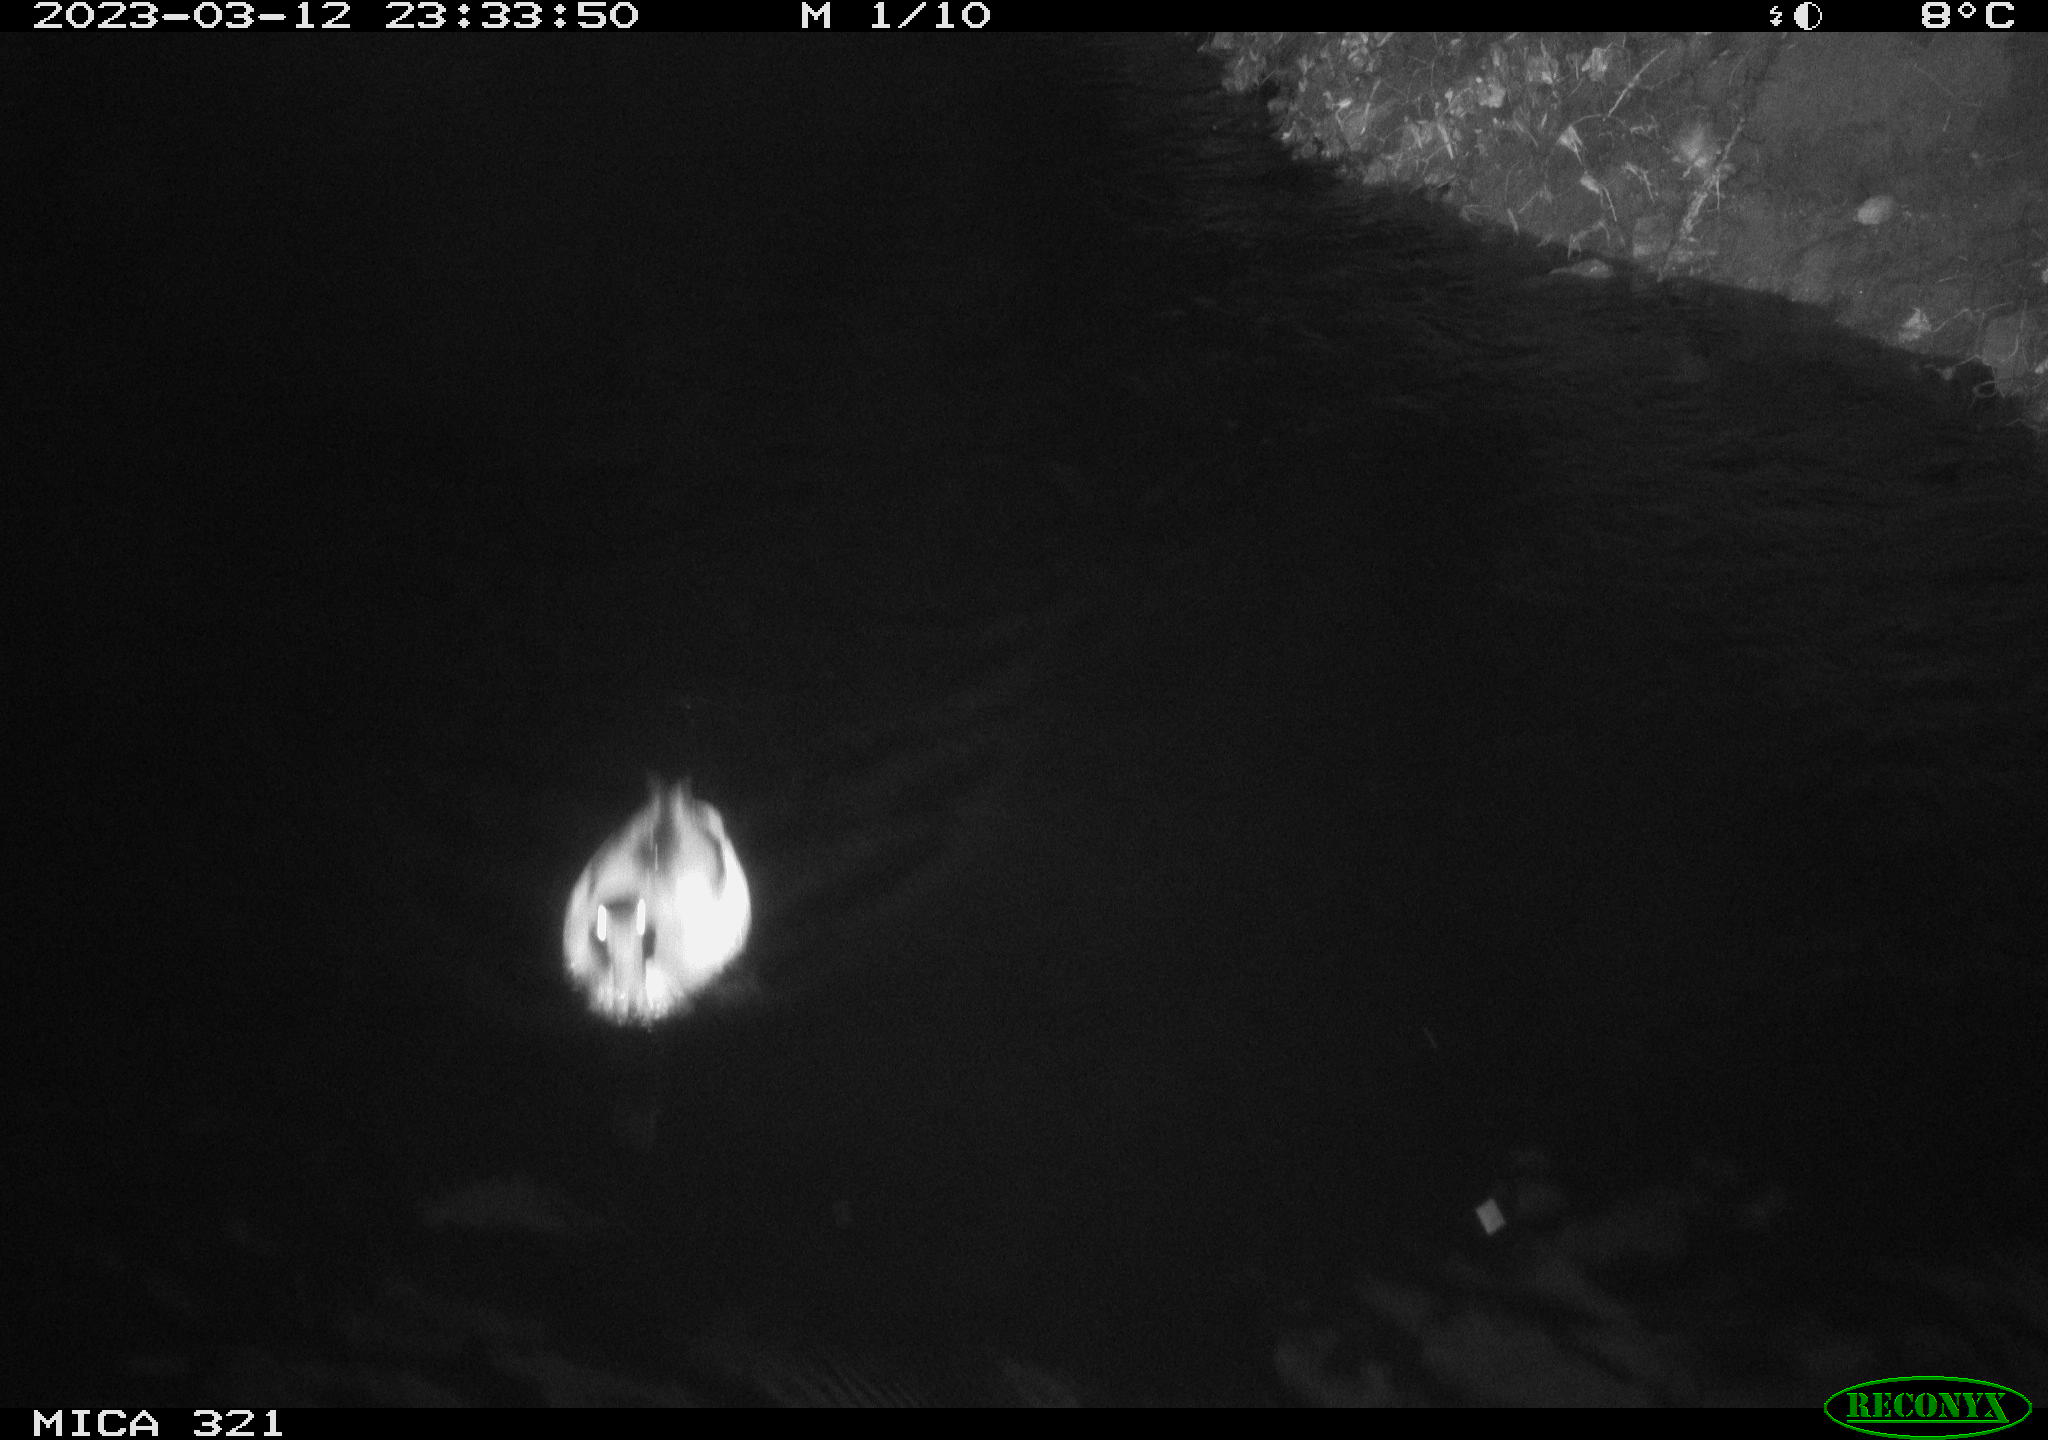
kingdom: Animalia
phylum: Chordata
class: Aves
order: Anseriformes
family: Anatidae
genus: Anas
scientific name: Anas
